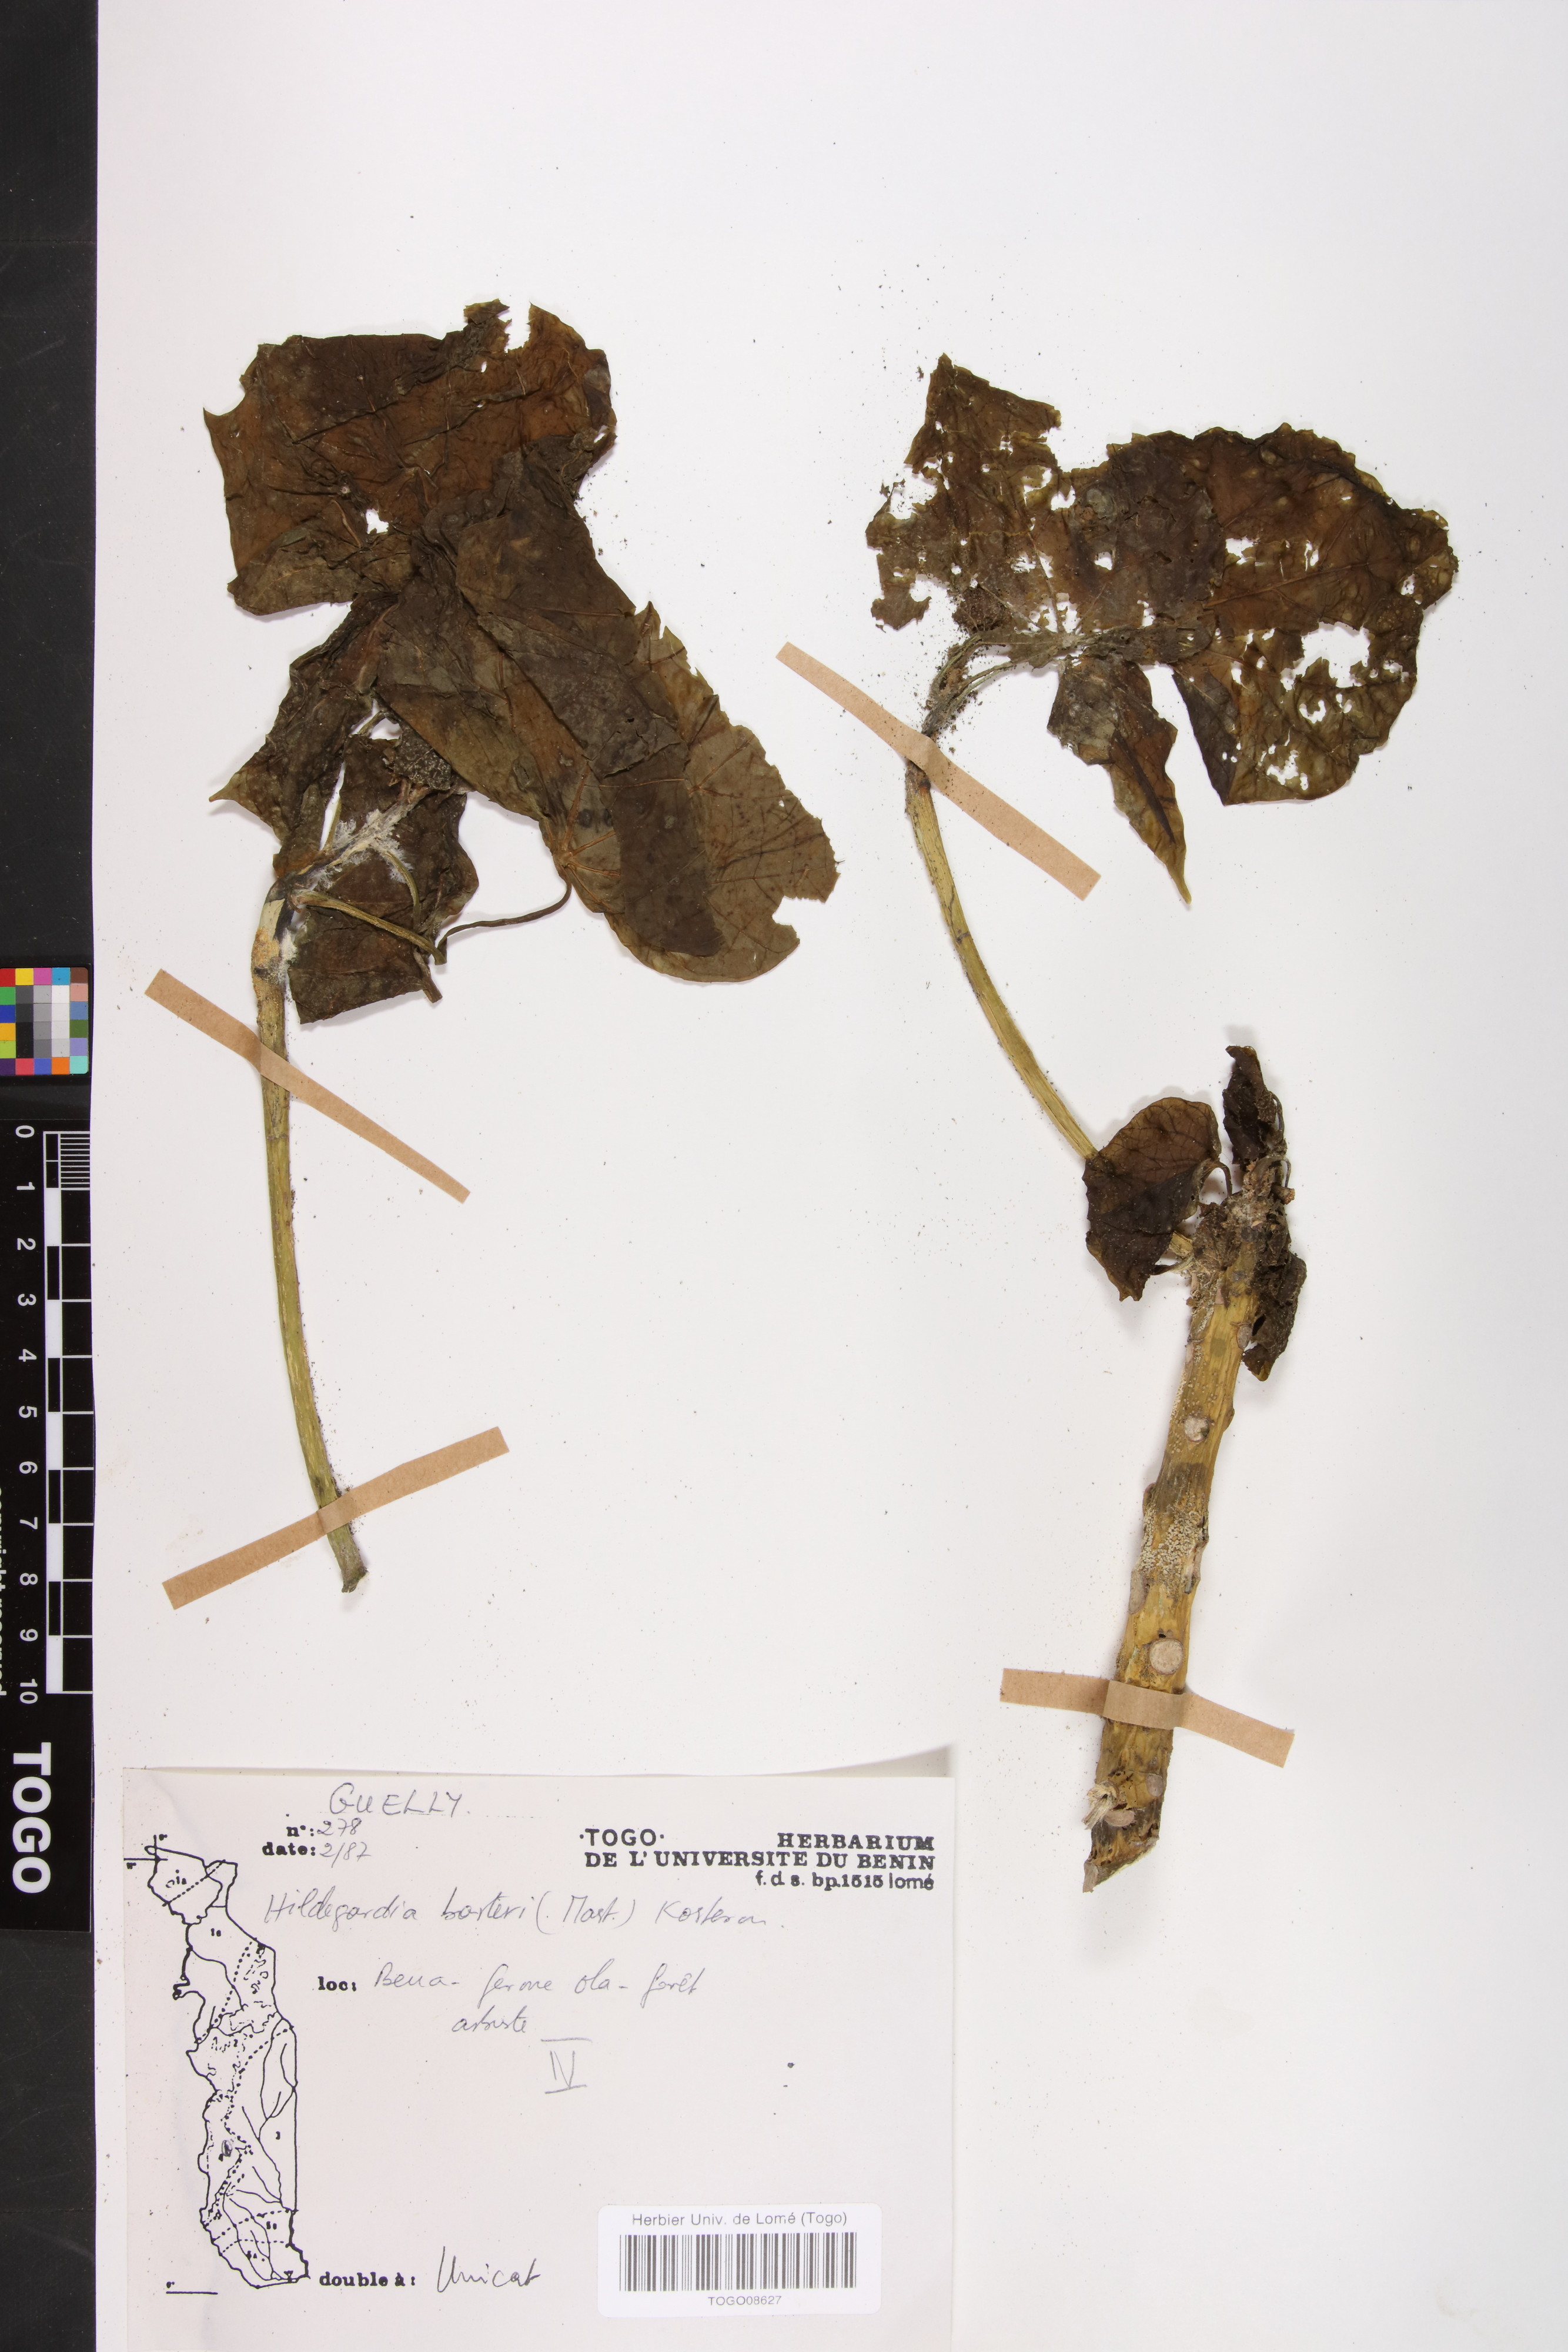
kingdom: Plantae
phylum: Tracheophyta
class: Magnoliopsida
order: Malvales
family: Malvaceae
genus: Hildegardia
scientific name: Hildegardia barteri
